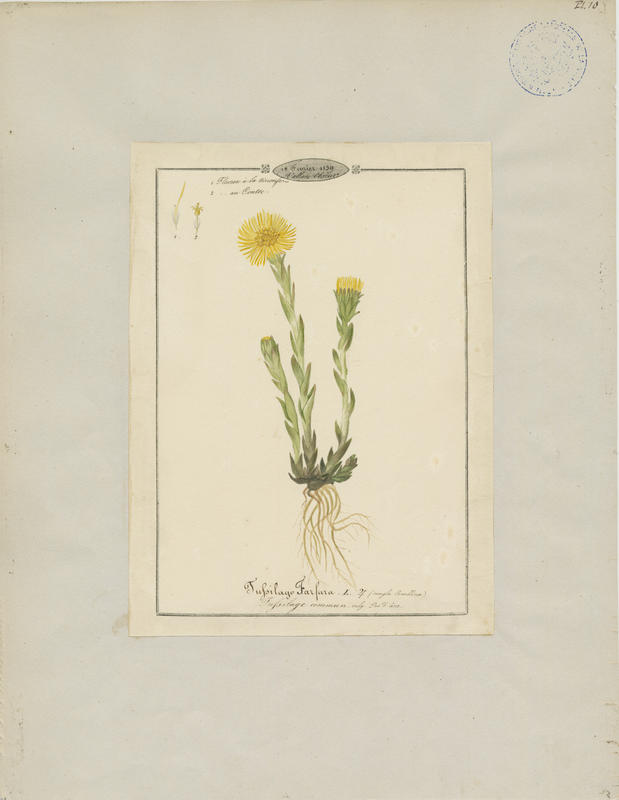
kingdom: Plantae
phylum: Tracheophyta
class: Magnoliopsida
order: Asterales
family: Asteraceae
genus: Tussilago
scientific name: Tussilago farfara
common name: Coltsfoot
